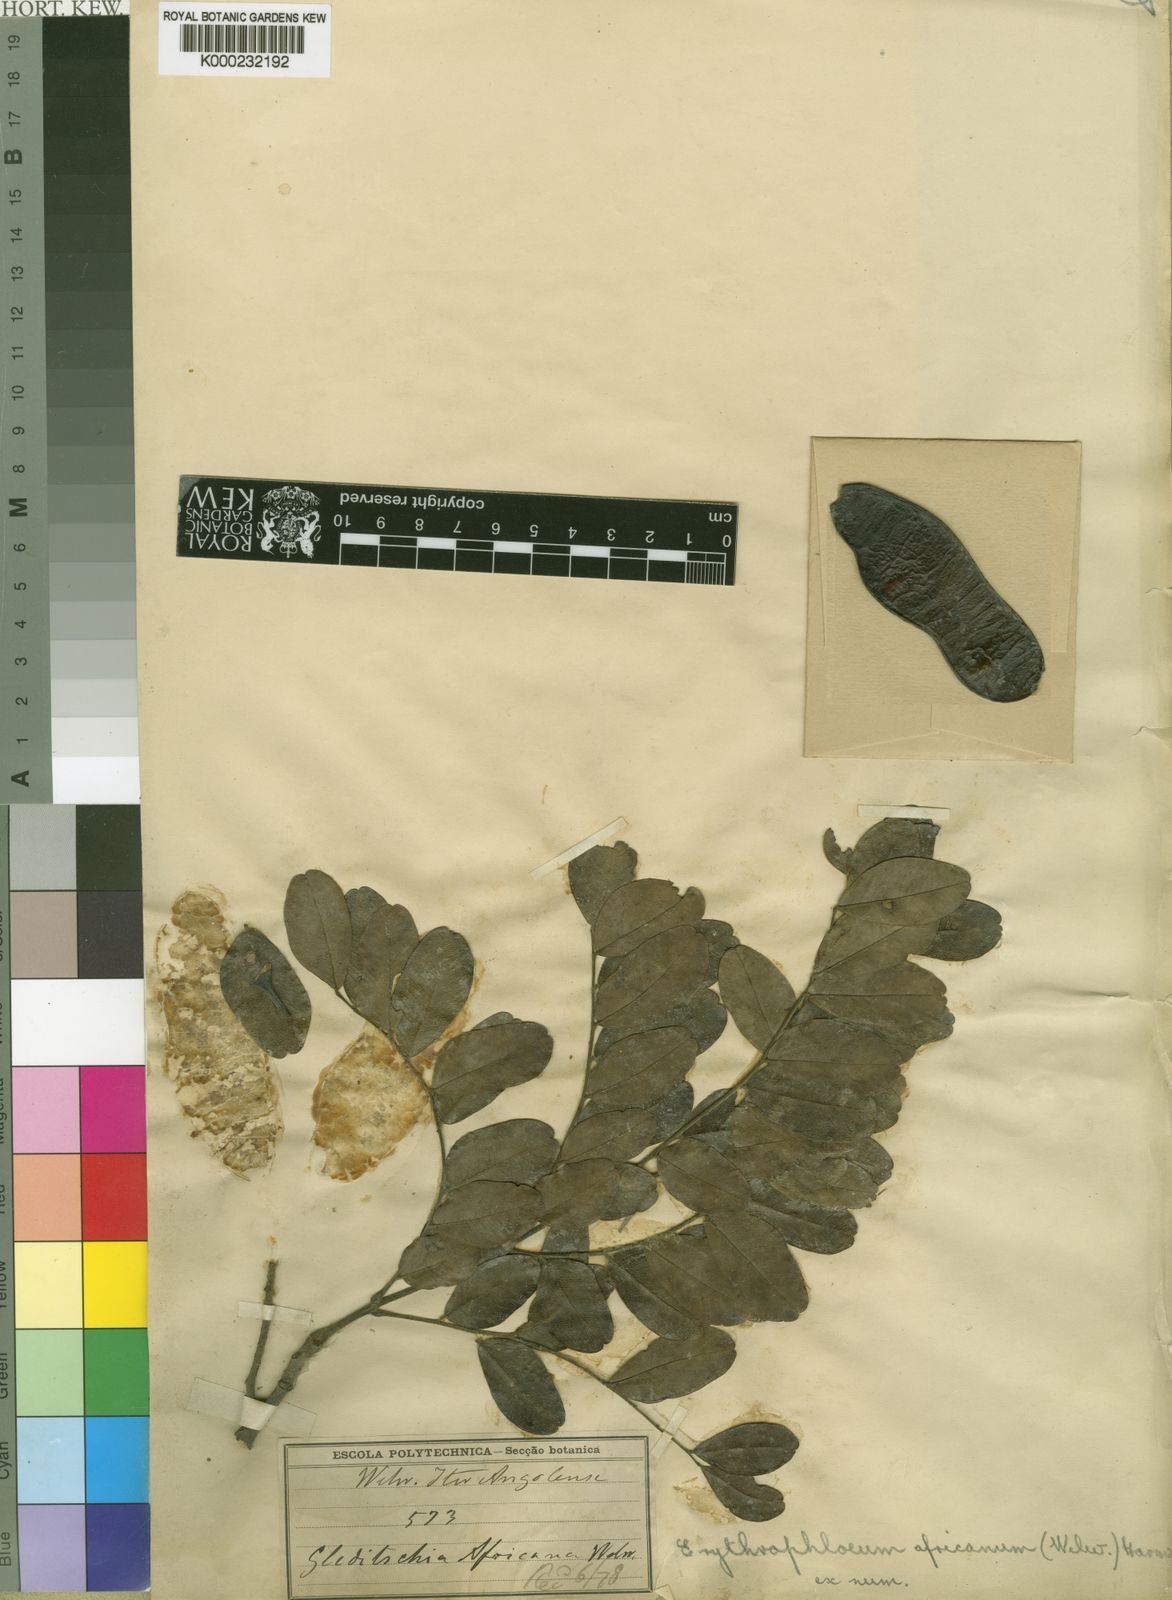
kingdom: Plantae
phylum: Tracheophyta
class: Magnoliopsida
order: Fabales
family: Fabaceae
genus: Erythrophleum
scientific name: Erythrophleum africanum
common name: African blackwood
